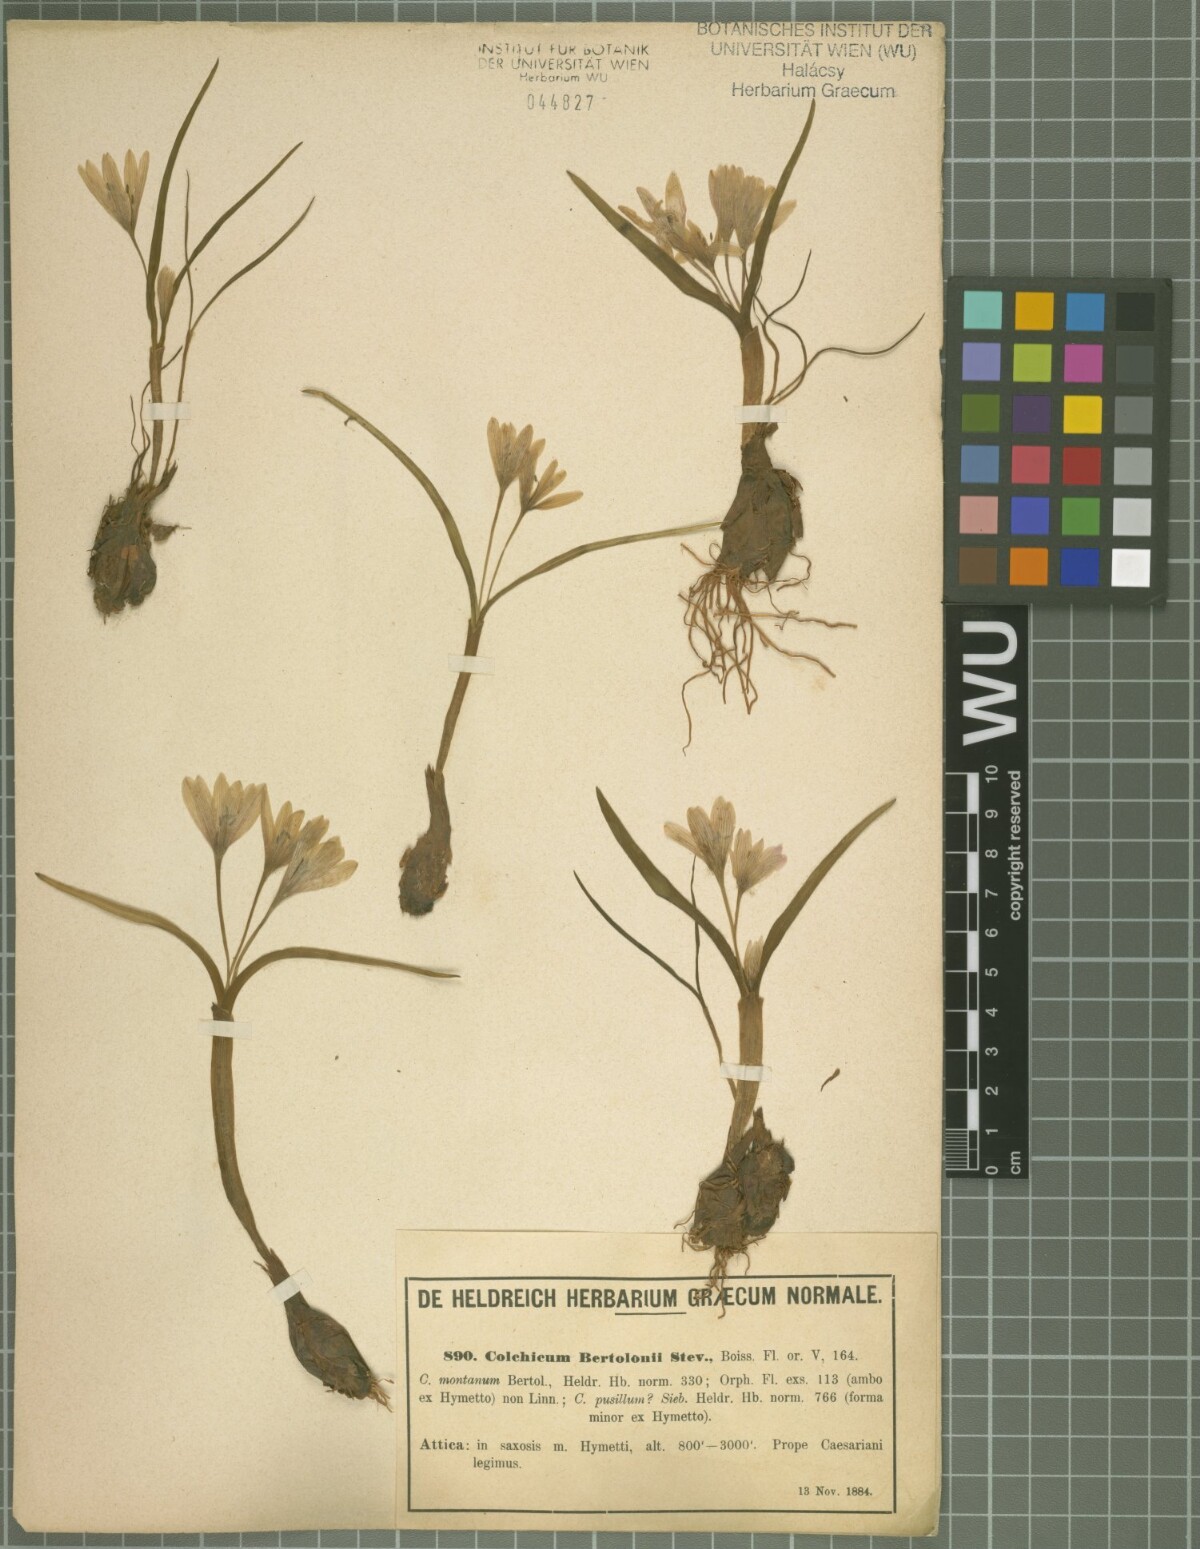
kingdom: Plantae
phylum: Tracheophyta
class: Liliopsida
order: Liliales
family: Colchicaceae
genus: Colchicum
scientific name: Colchicum cupanii
